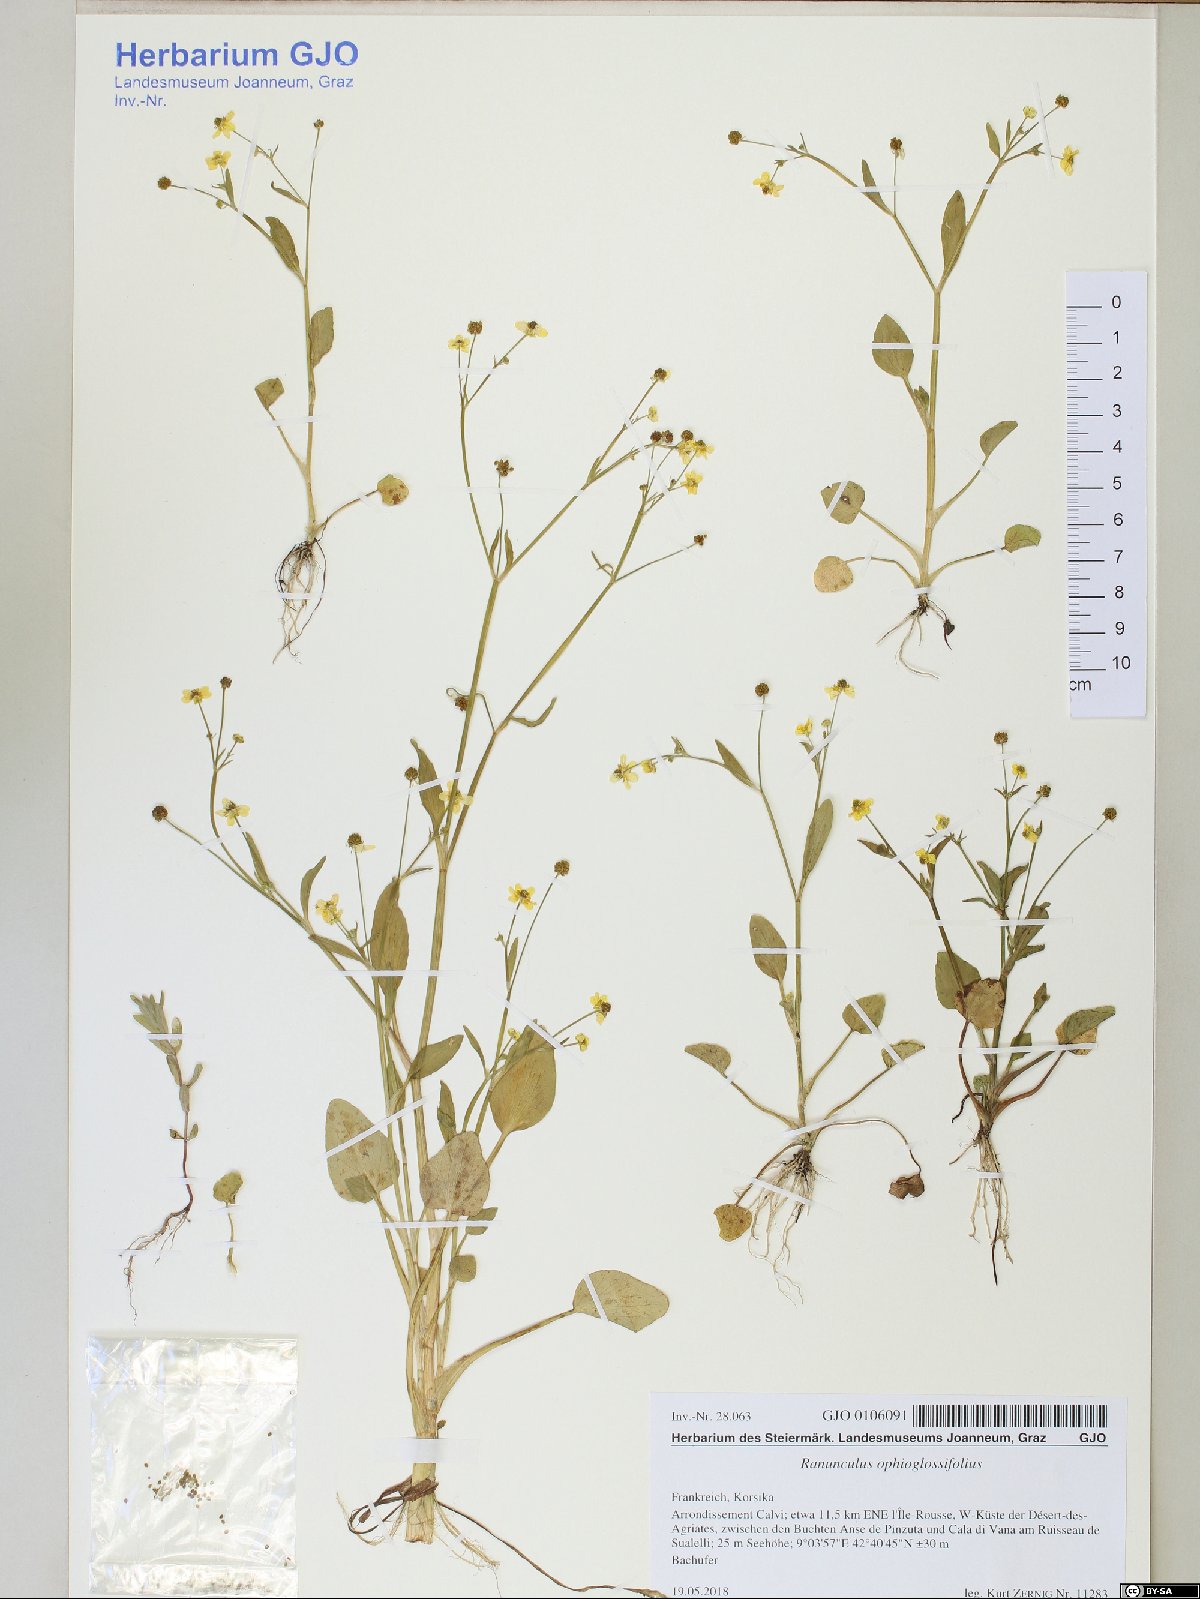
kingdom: Plantae
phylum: Tracheophyta
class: Magnoliopsida
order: Ranunculales
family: Ranunculaceae
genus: Ranunculus
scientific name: Ranunculus ophioglossifolius
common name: Adder's-tongue spearwort
